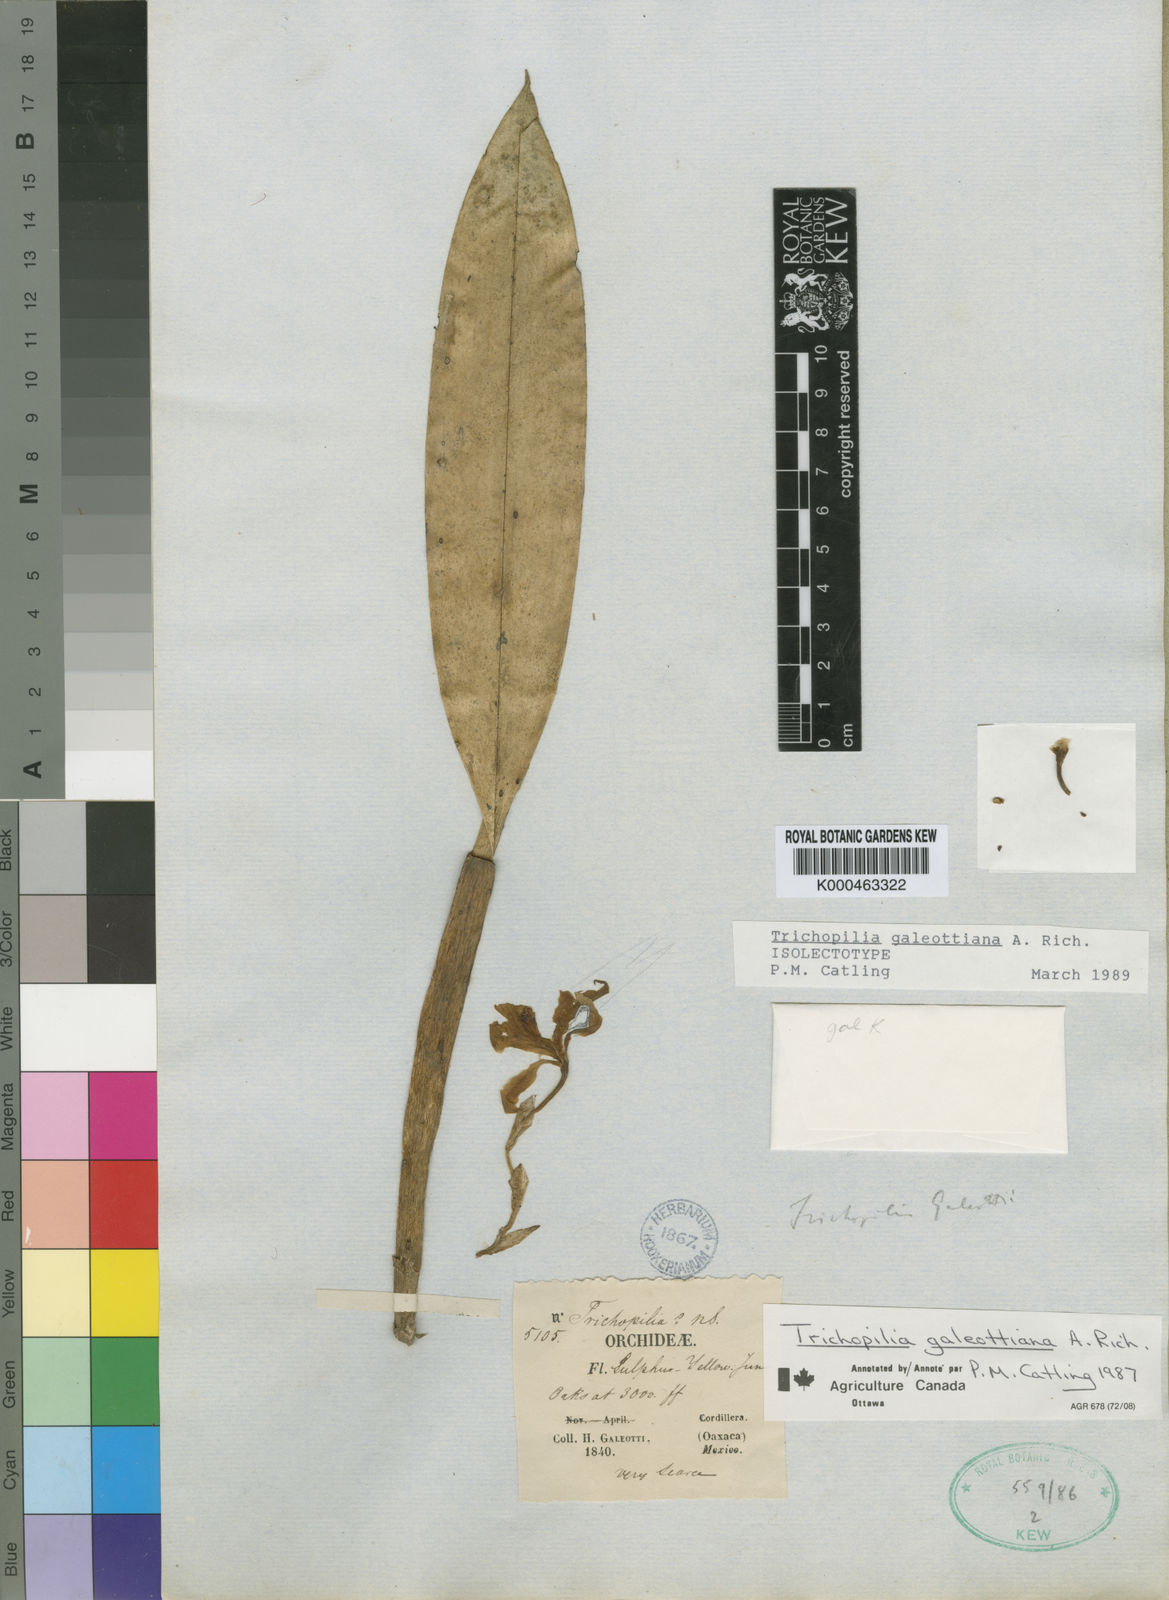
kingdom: Plantae
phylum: Tracheophyta
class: Liliopsida
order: Asparagales
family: Orchidaceae
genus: Trichopilia
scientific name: Trichopilia galeottiana
